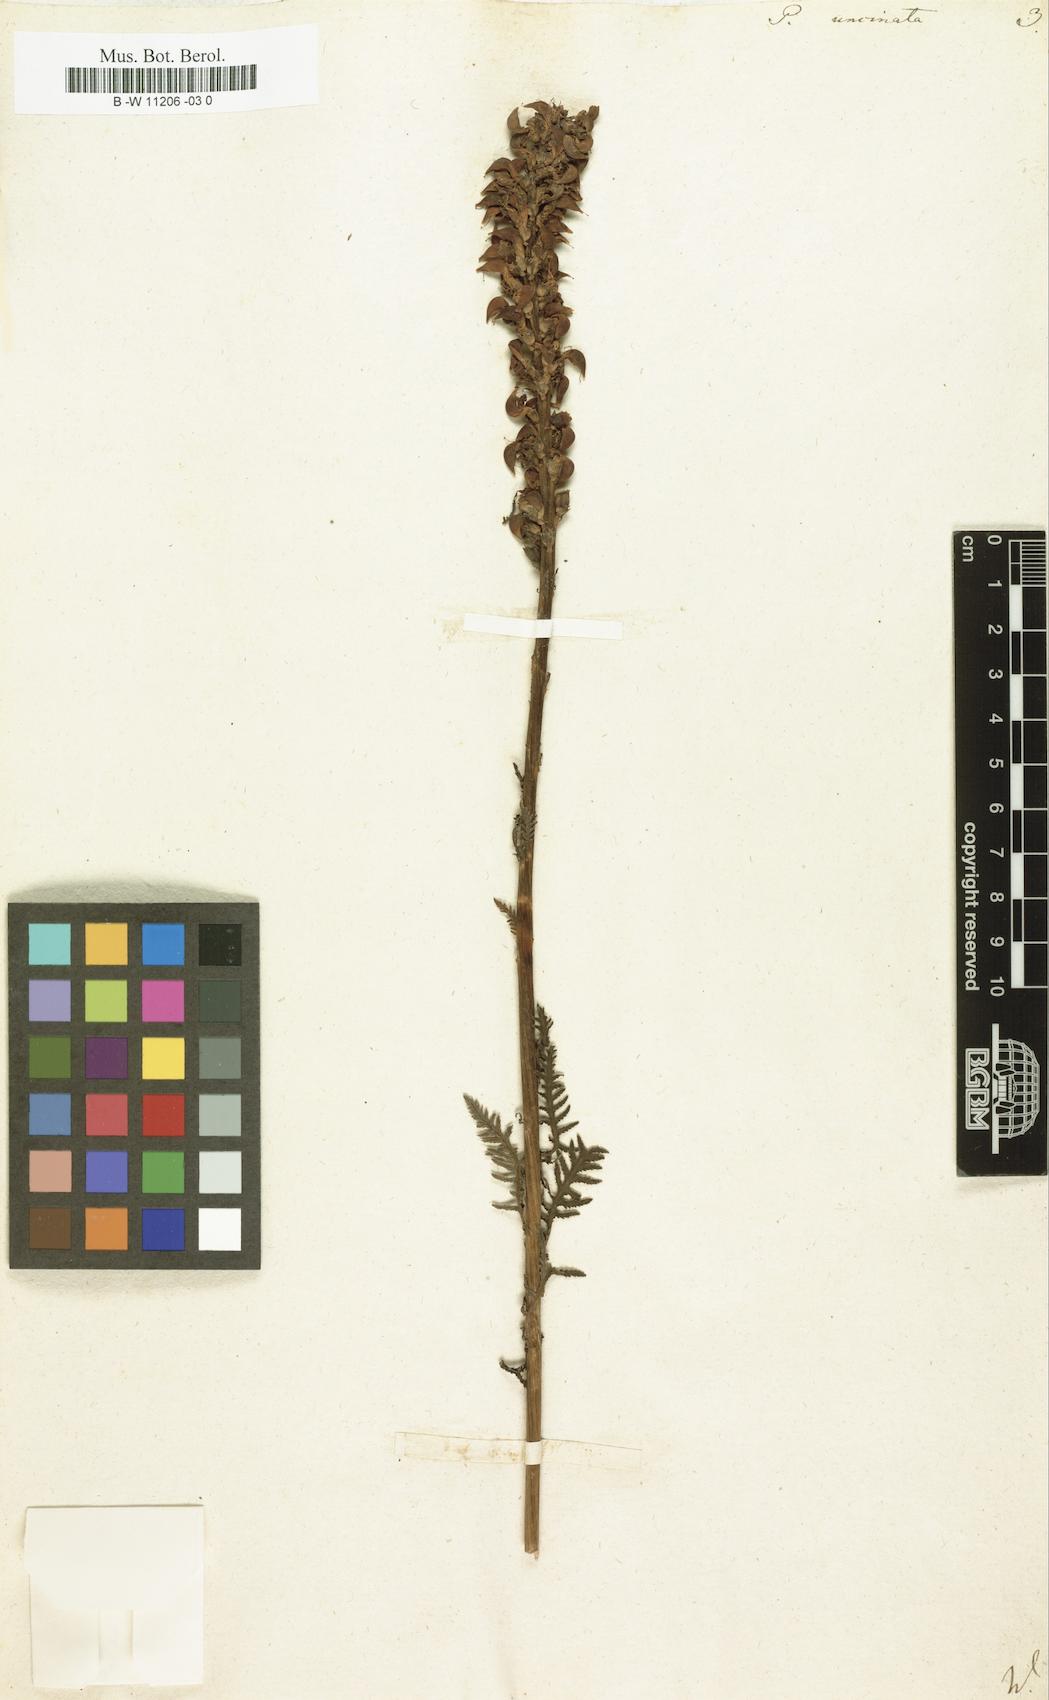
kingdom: Plantae
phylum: Tracheophyta
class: Magnoliopsida
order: Lamiales
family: Orobanchaceae
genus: Pedicularis
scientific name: Pedicularis
